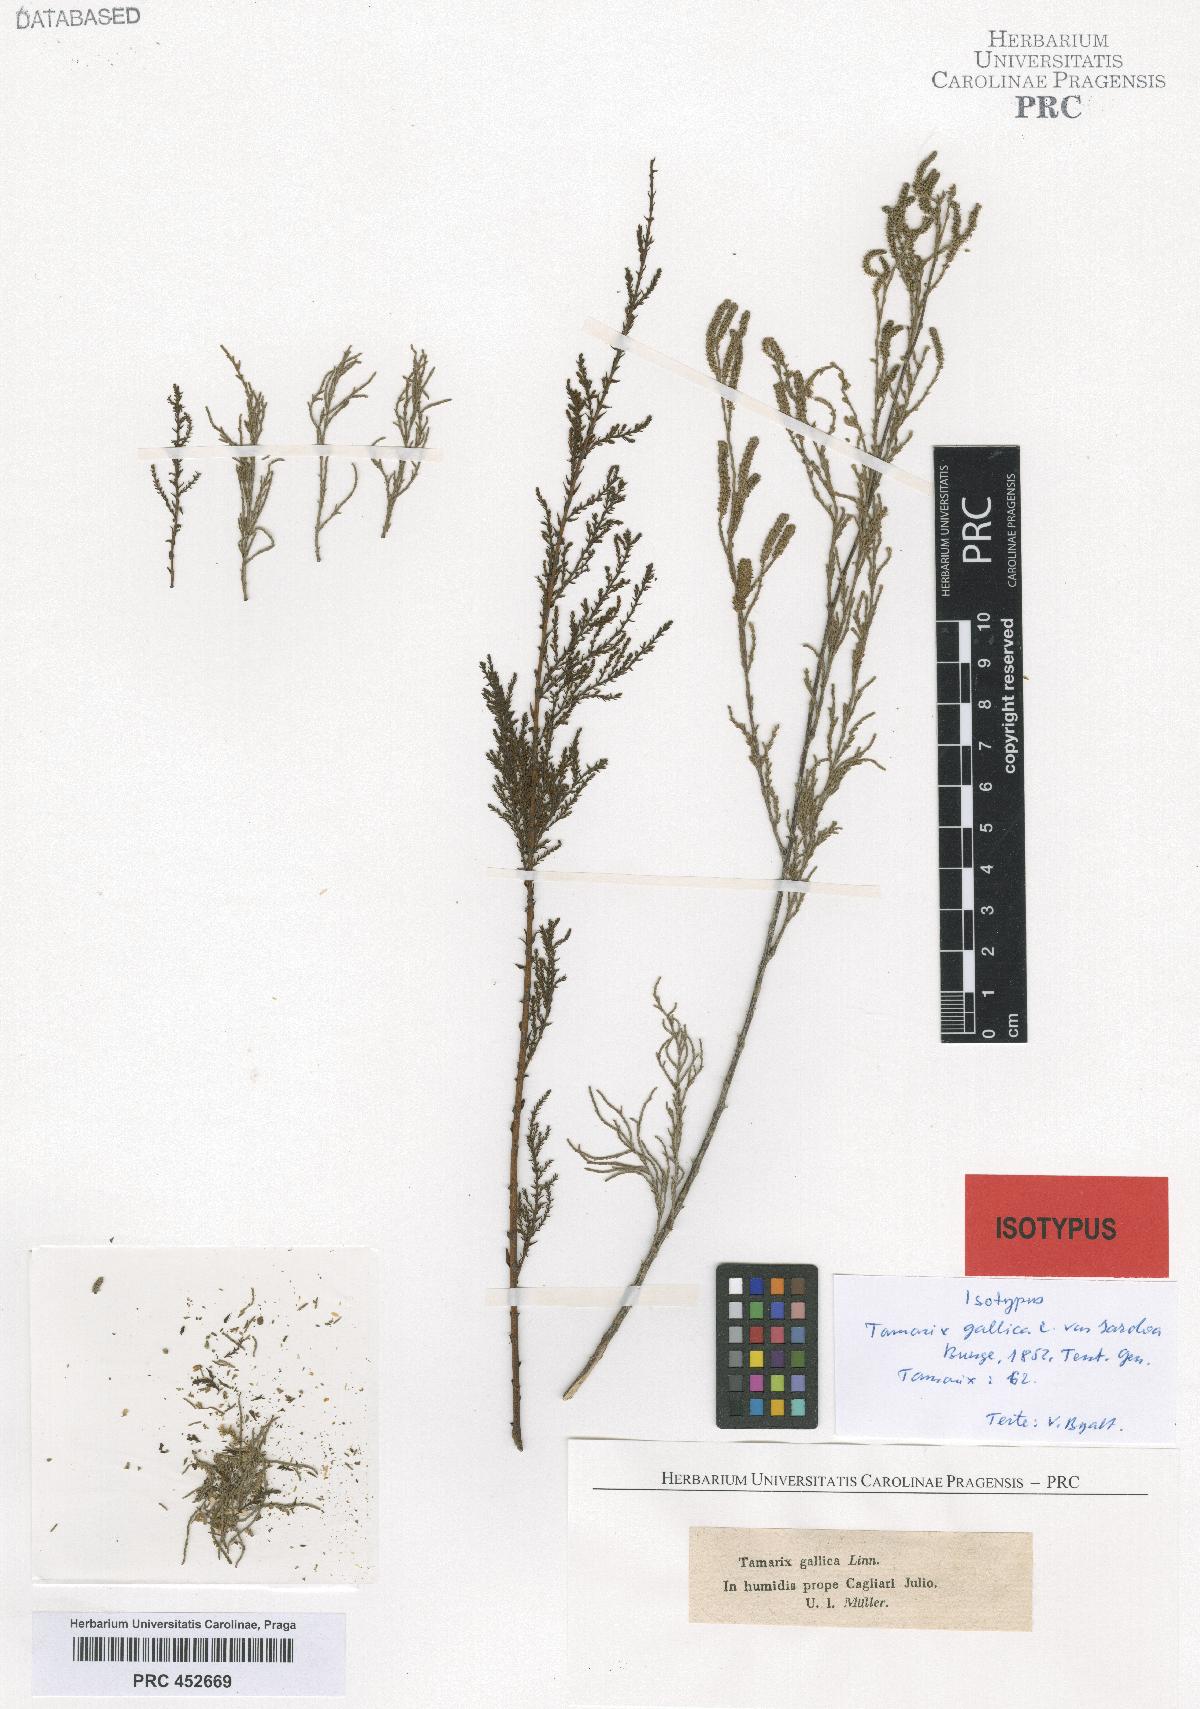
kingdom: Plantae
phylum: Tracheophyta
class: Magnoliopsida
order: Caryophyllales
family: Tamaricaceae
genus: Tamarix
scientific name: Tamarix gallica
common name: Tamarisk
